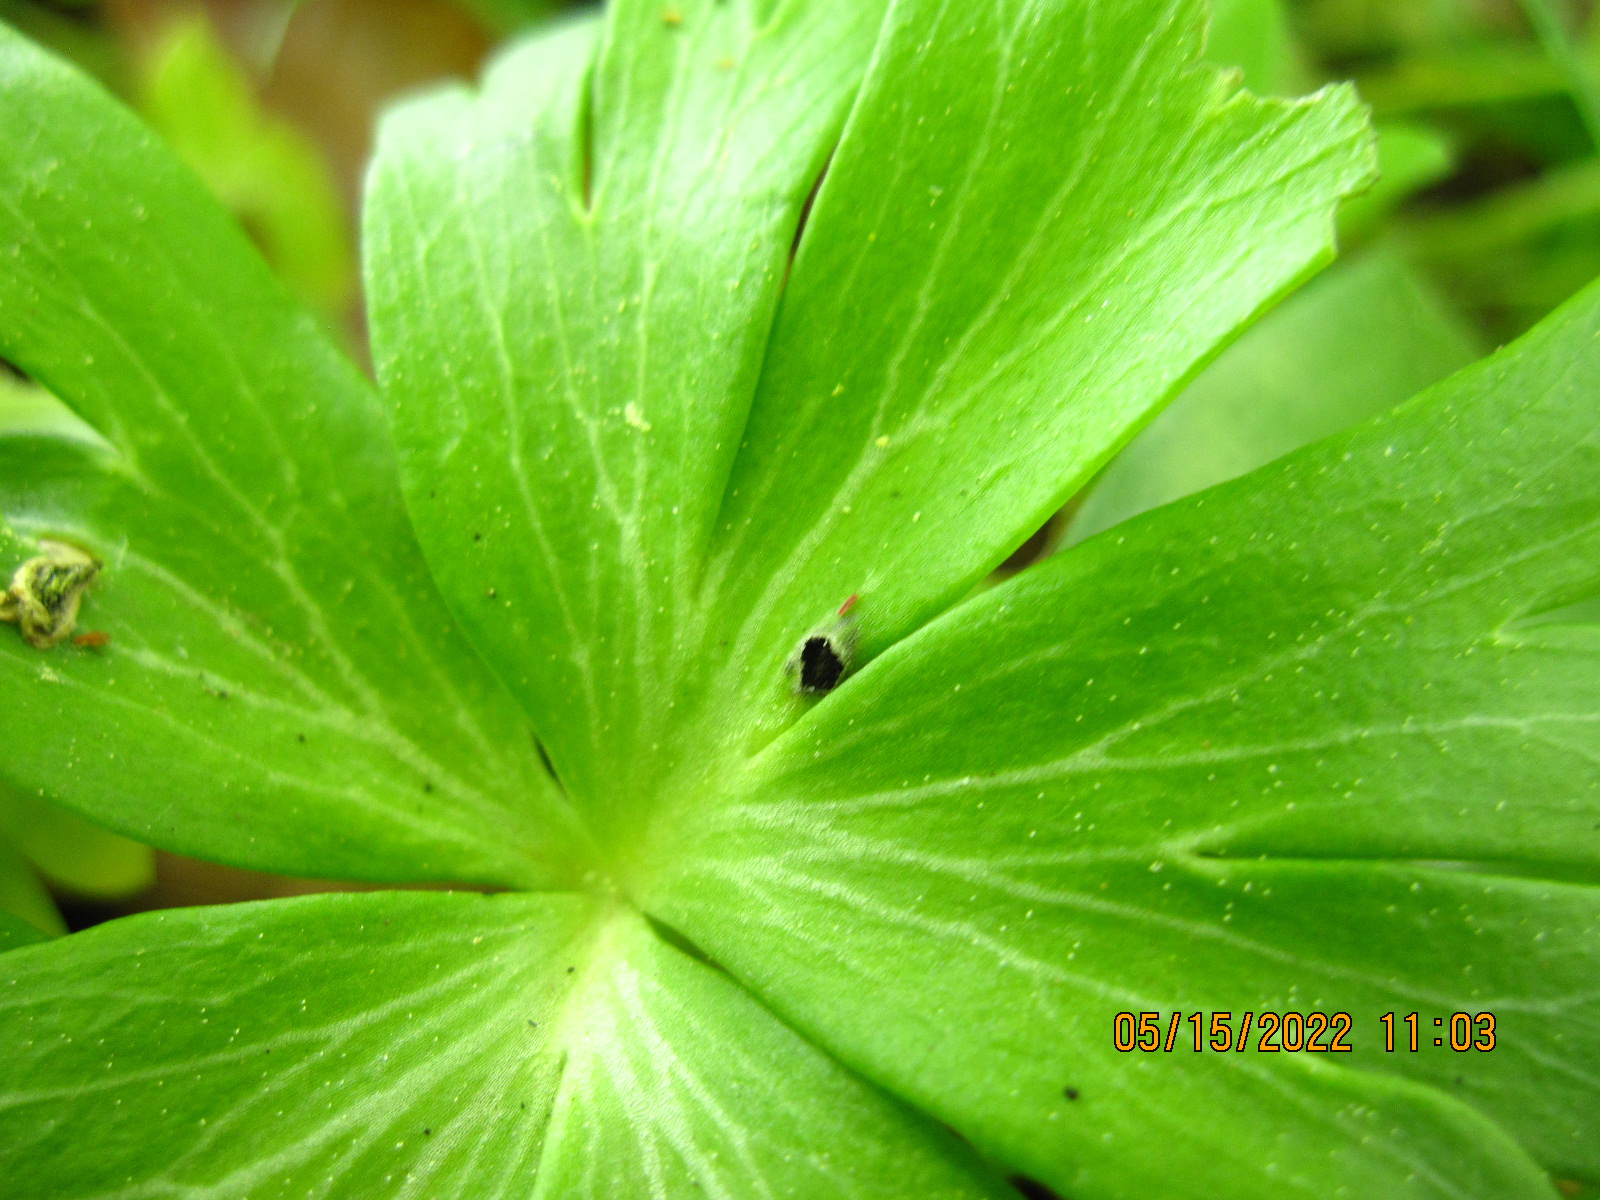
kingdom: Fungi
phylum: Basidiomycota
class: Ustilaginomycetes
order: Urocystidales
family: Urocystidaceae
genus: Urocystis
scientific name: Urocystis eranthidis
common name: erantis-brand
